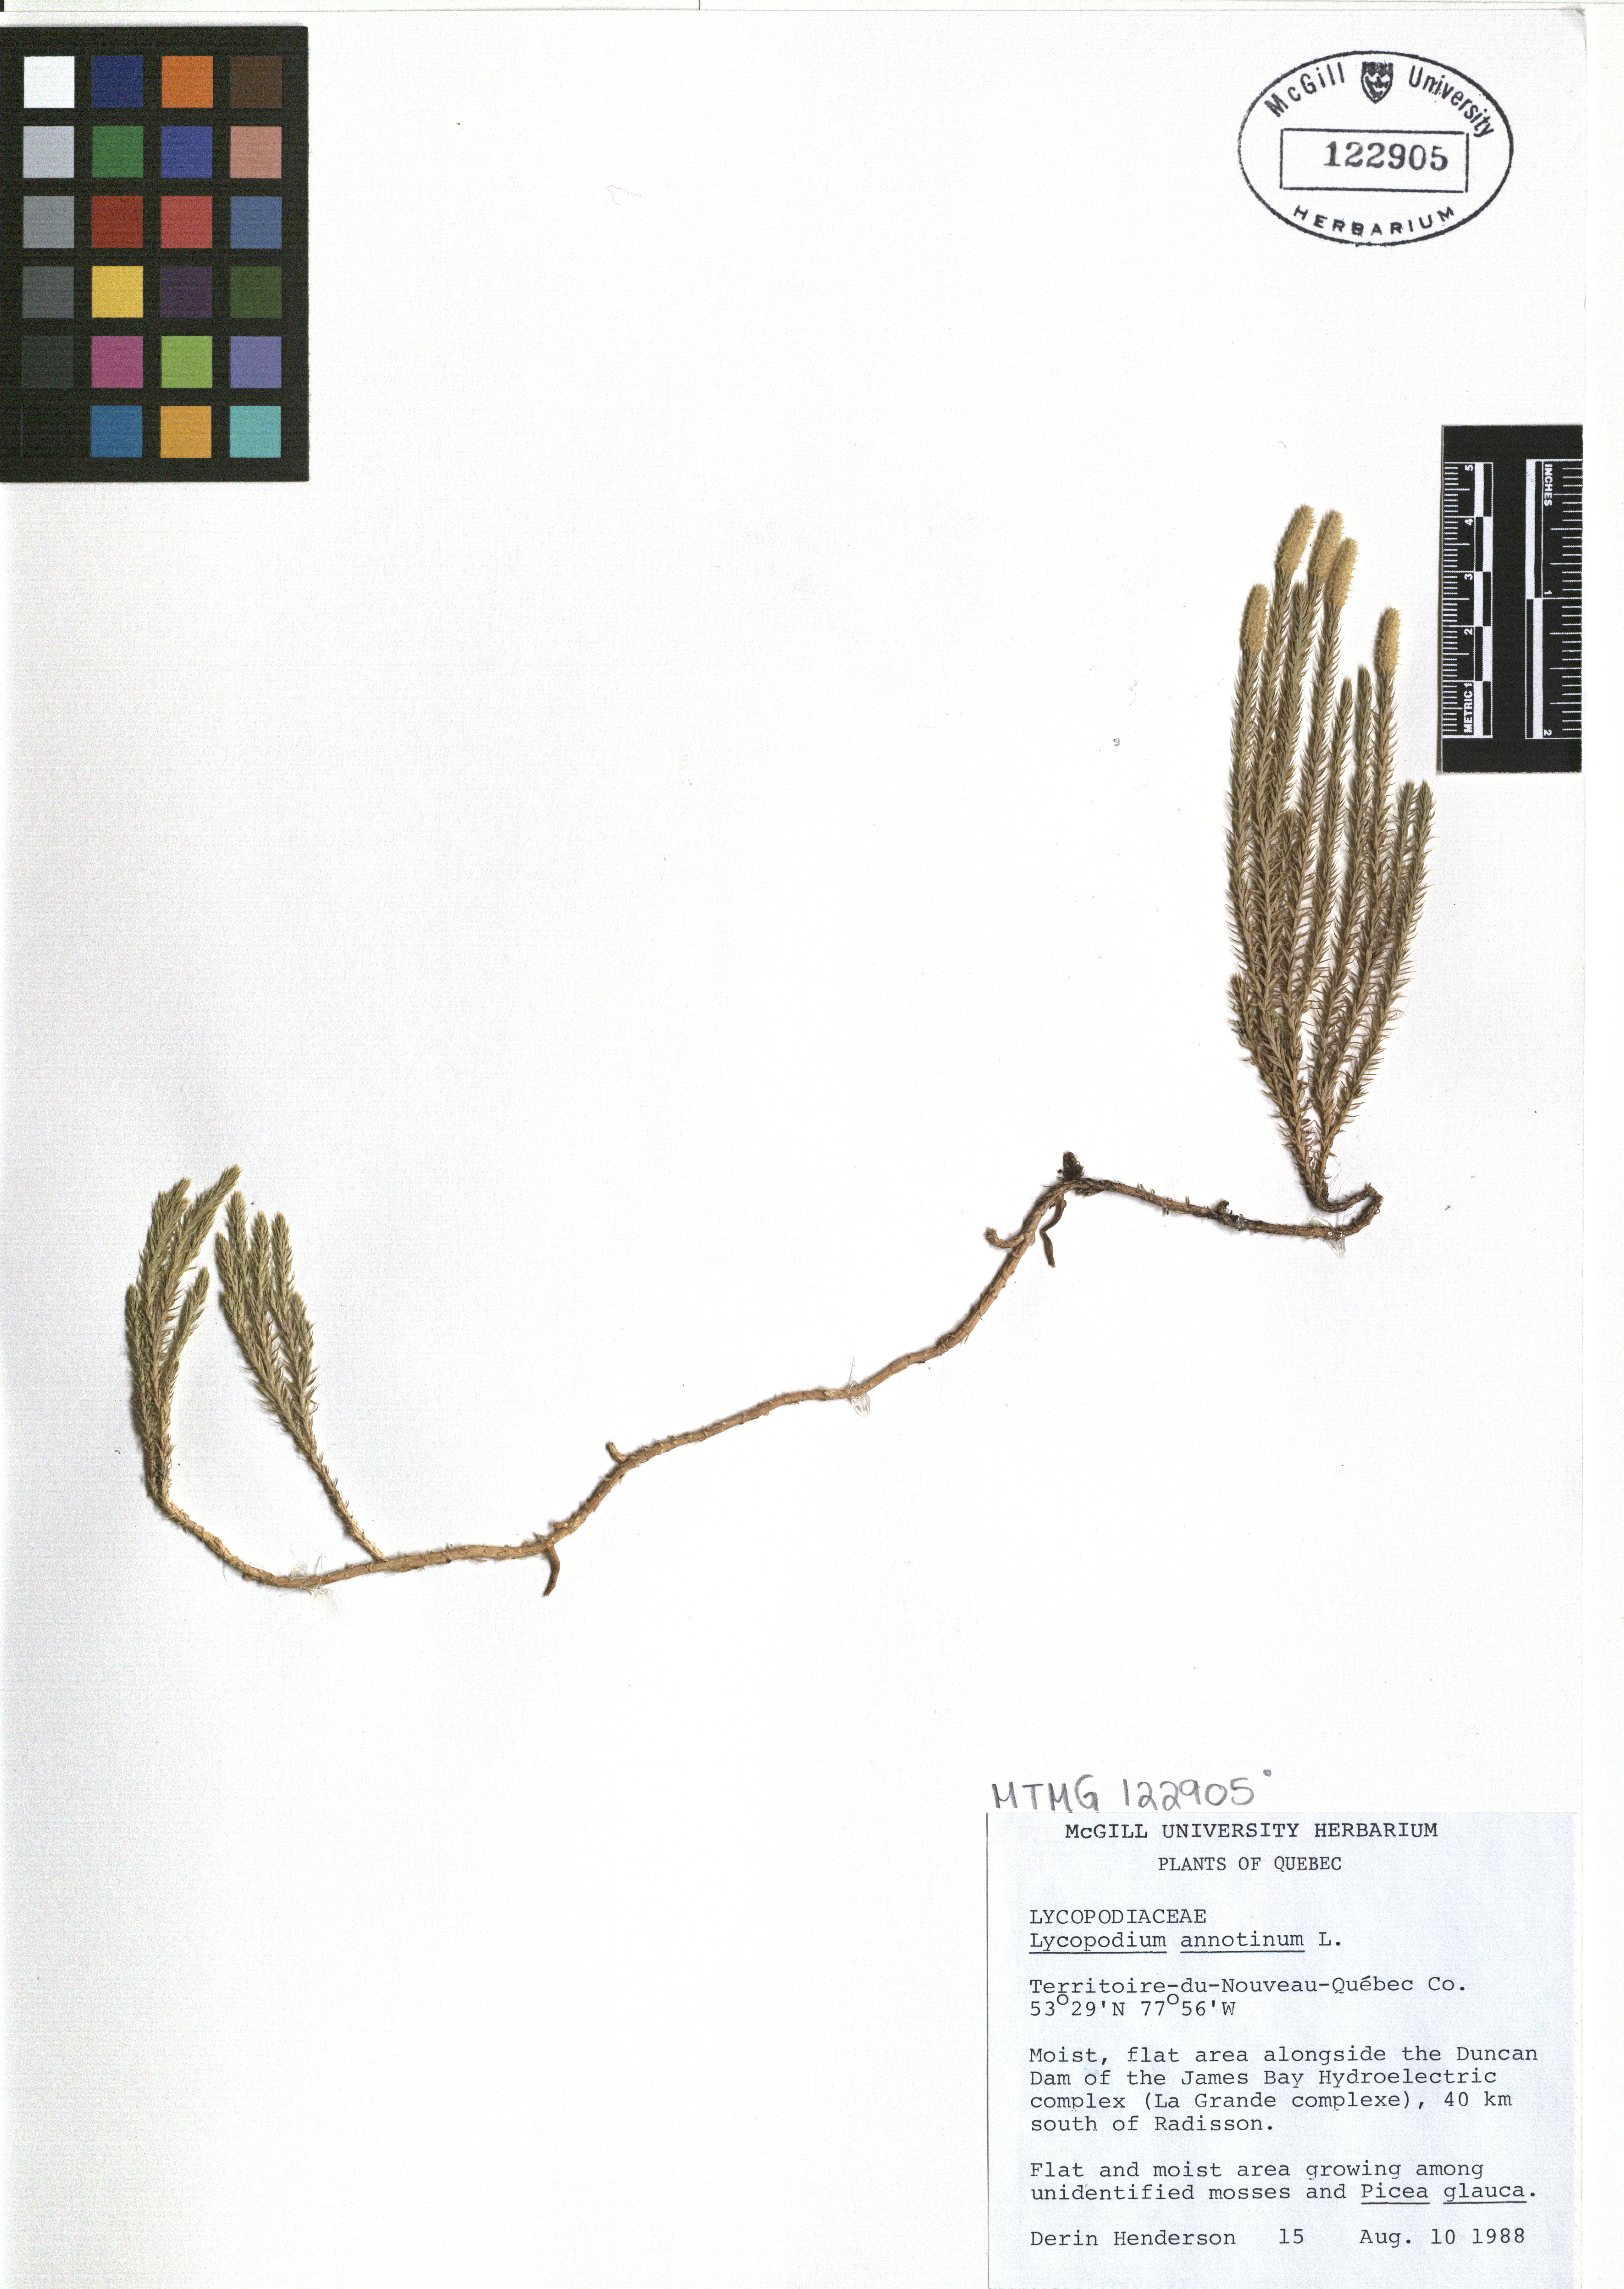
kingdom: Plantae
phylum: Tracheophyta
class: Lycopodiopsida
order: Lycopodiales
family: Lycopodiaceae
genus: Spinulum
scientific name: Spinulum annotinum
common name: Interrupted club-moss
